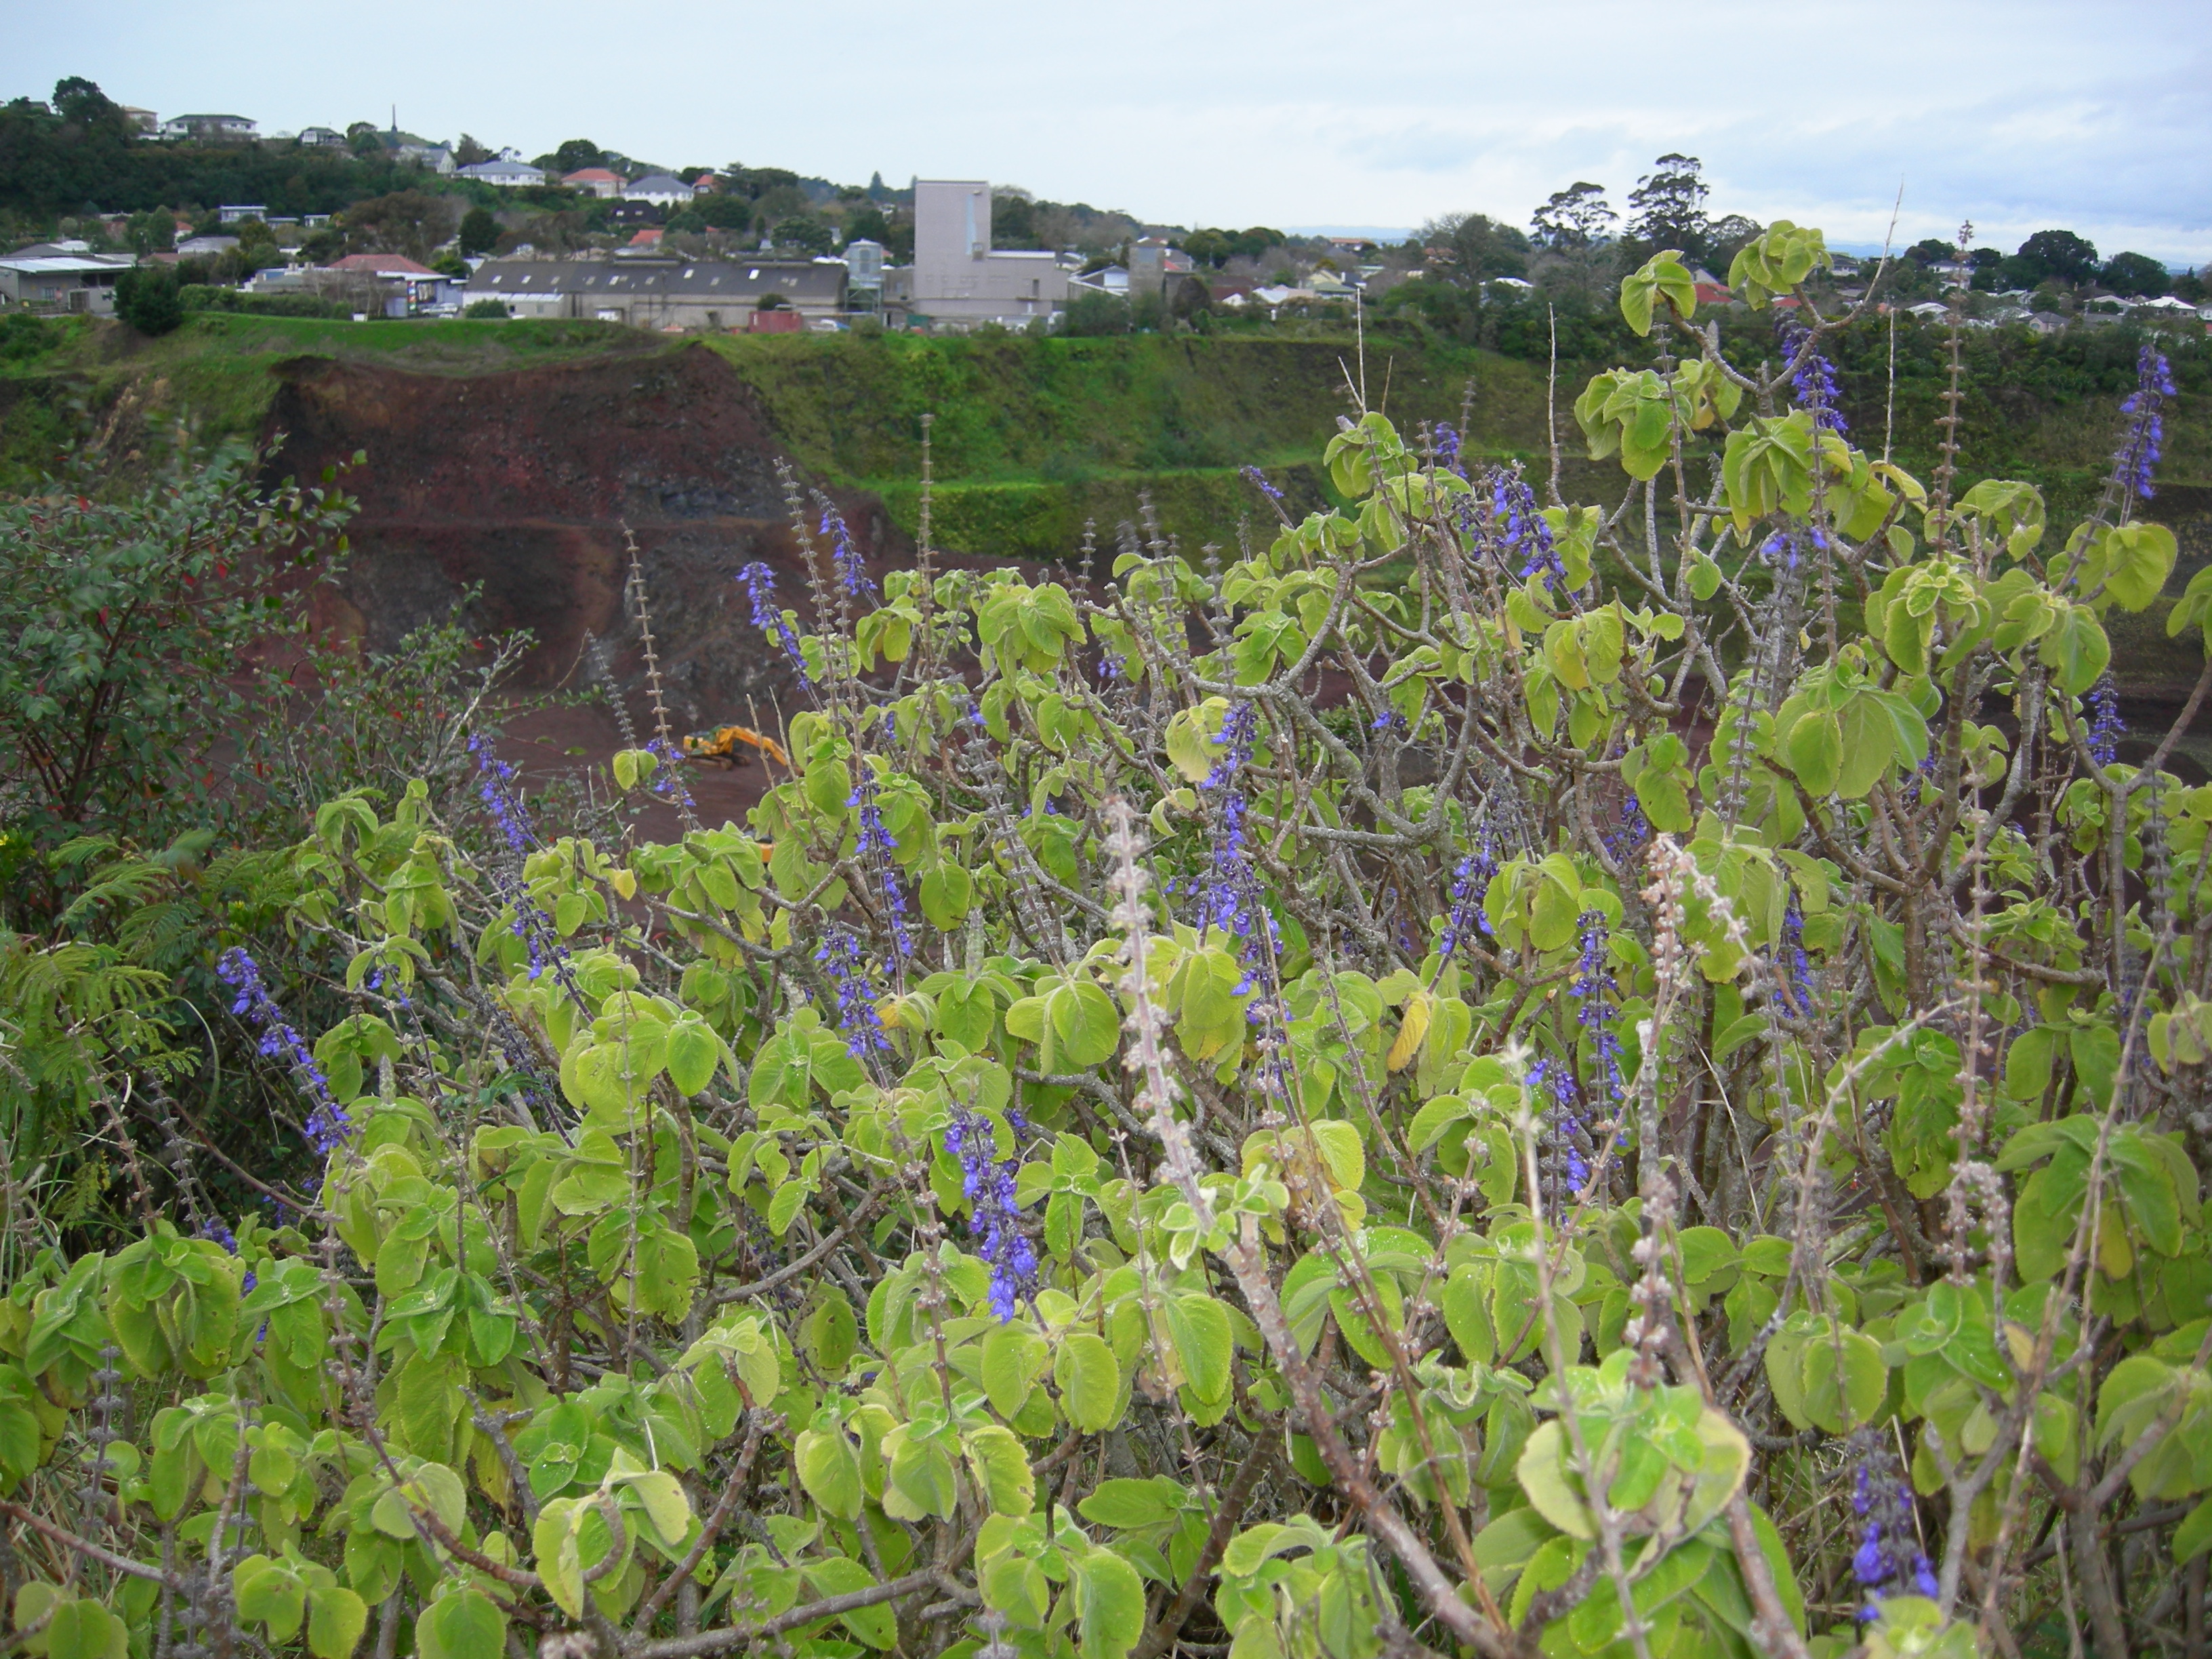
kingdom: Plantae
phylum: Tracheophyta
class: Magnoliopsida
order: Lamiales
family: Lamiaceae
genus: Coleus
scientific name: Coleus barbatus
